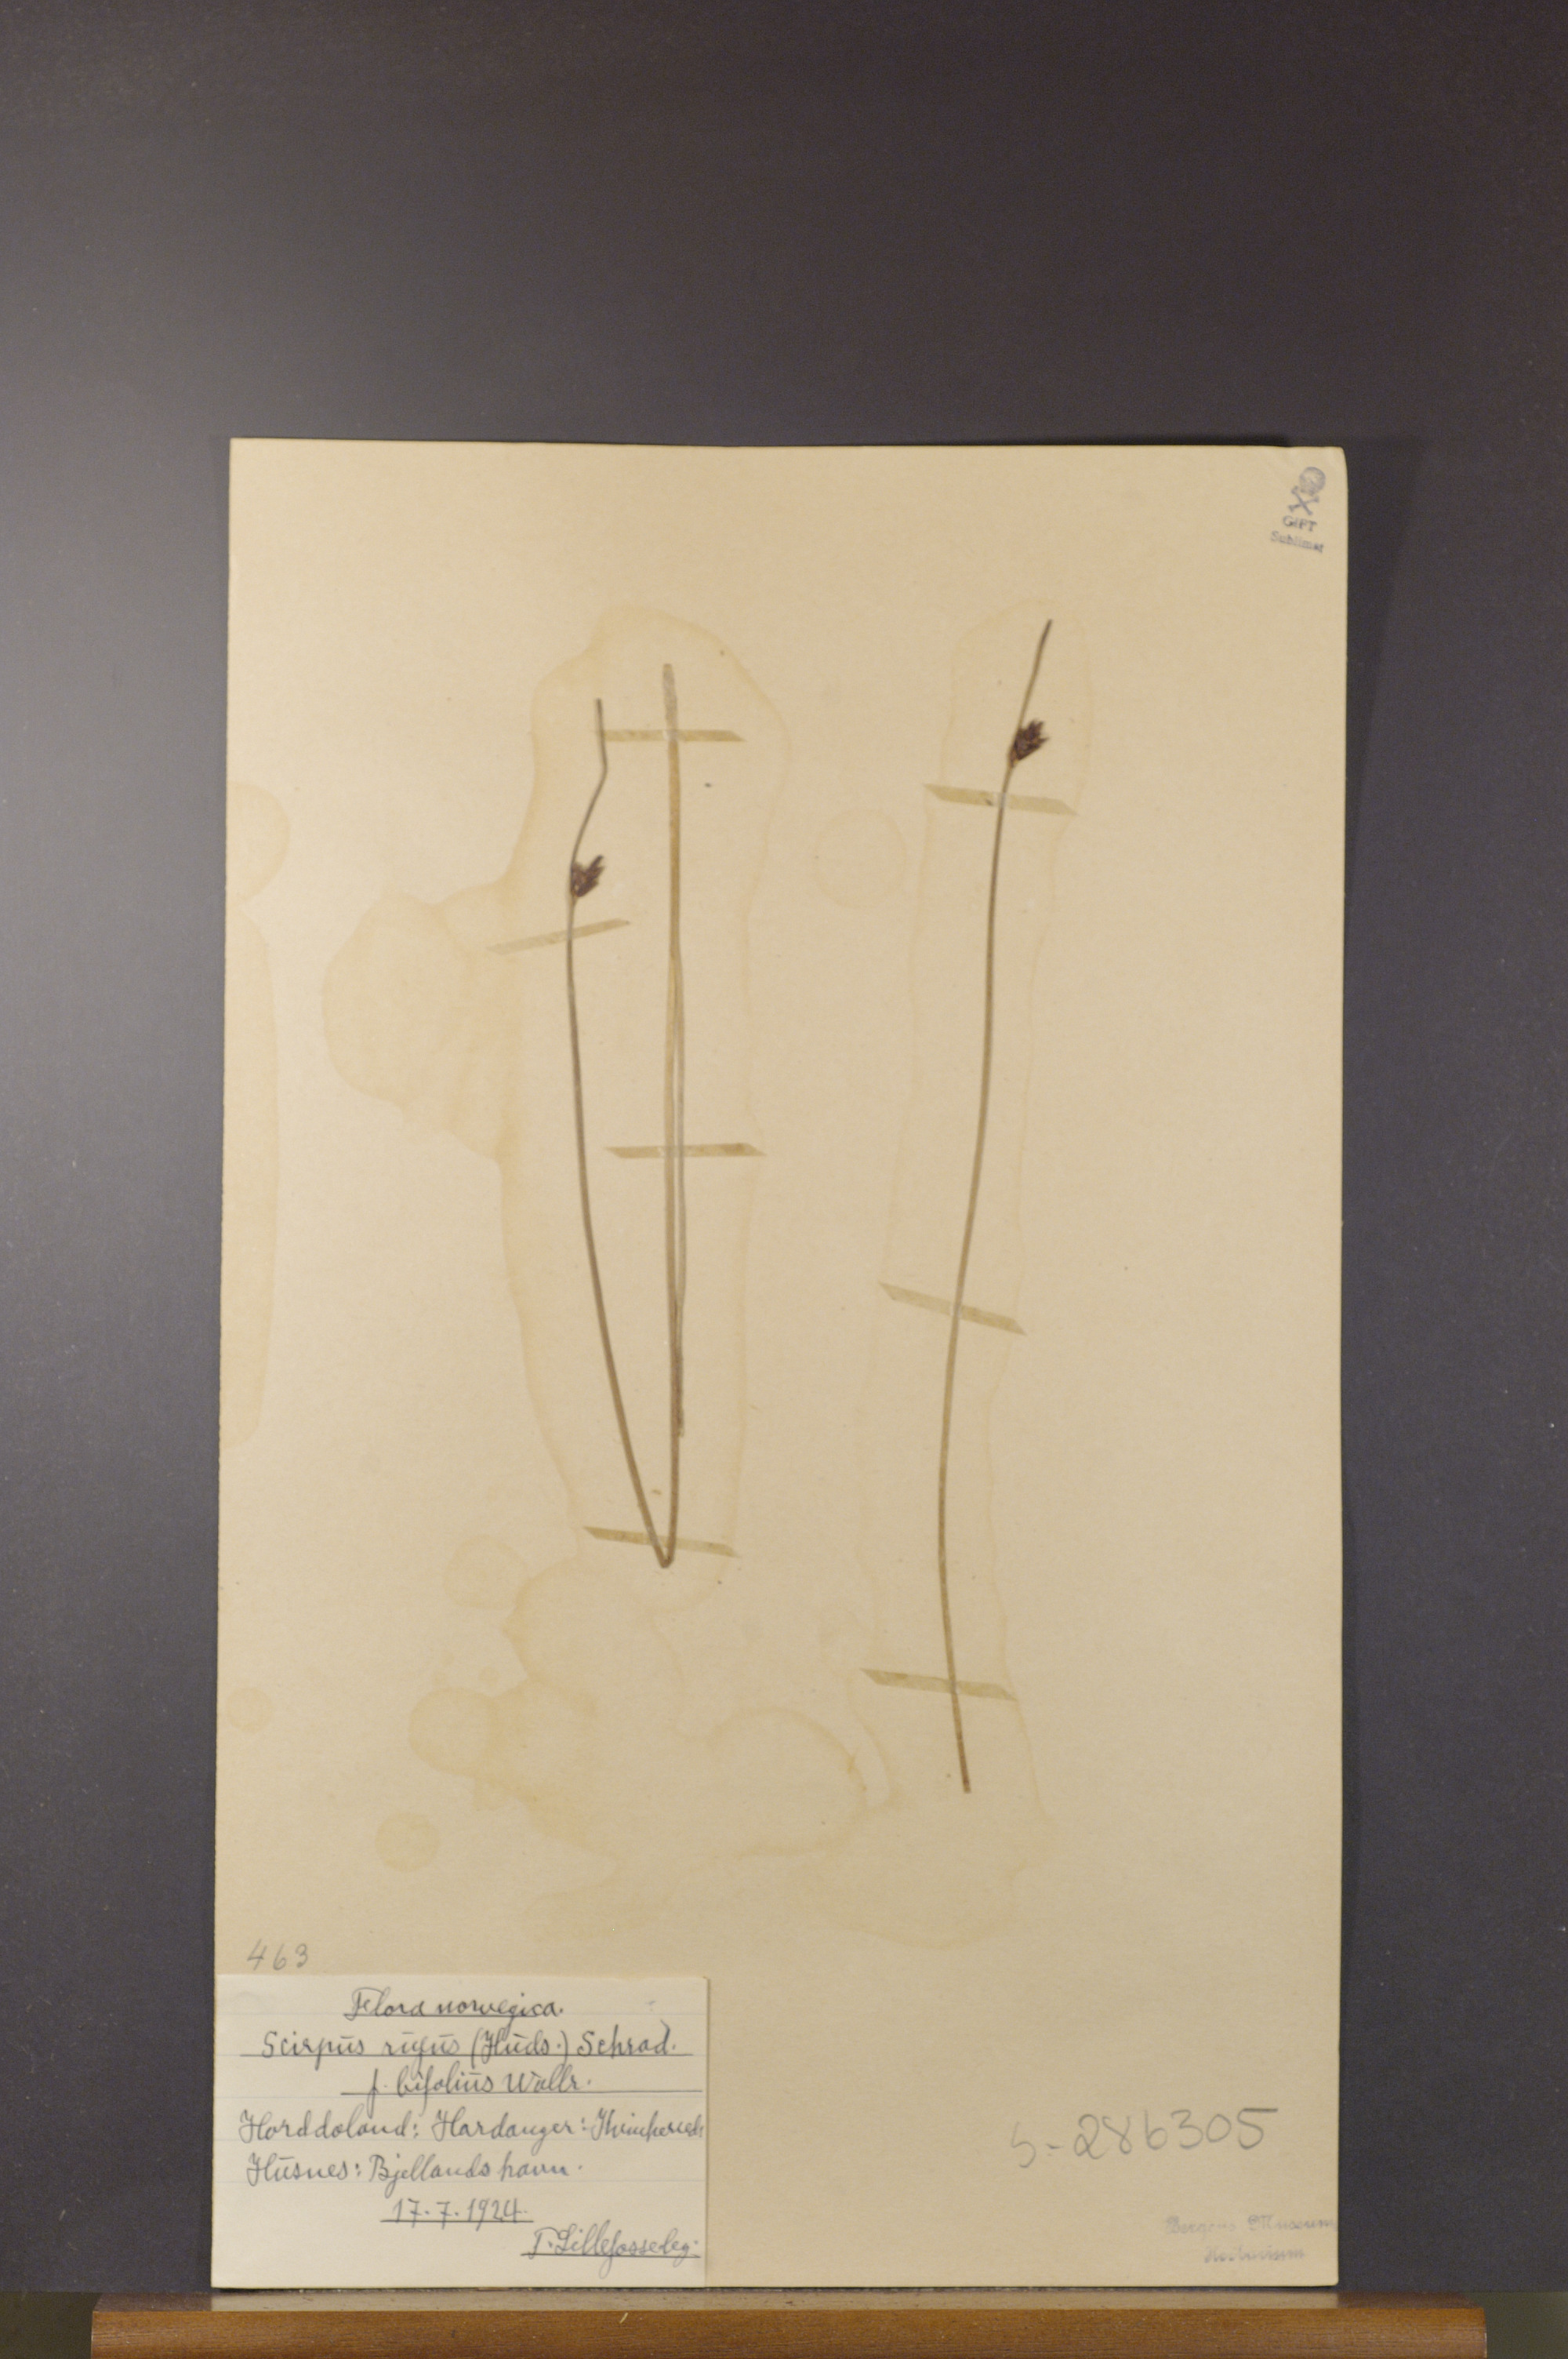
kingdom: Plantae
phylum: Tracheophyta
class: Liliopsida
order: Poales
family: Cyperaceae
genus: Blysmus
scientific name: Blysmus rufus
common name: Saltmarsh flat-sedge
